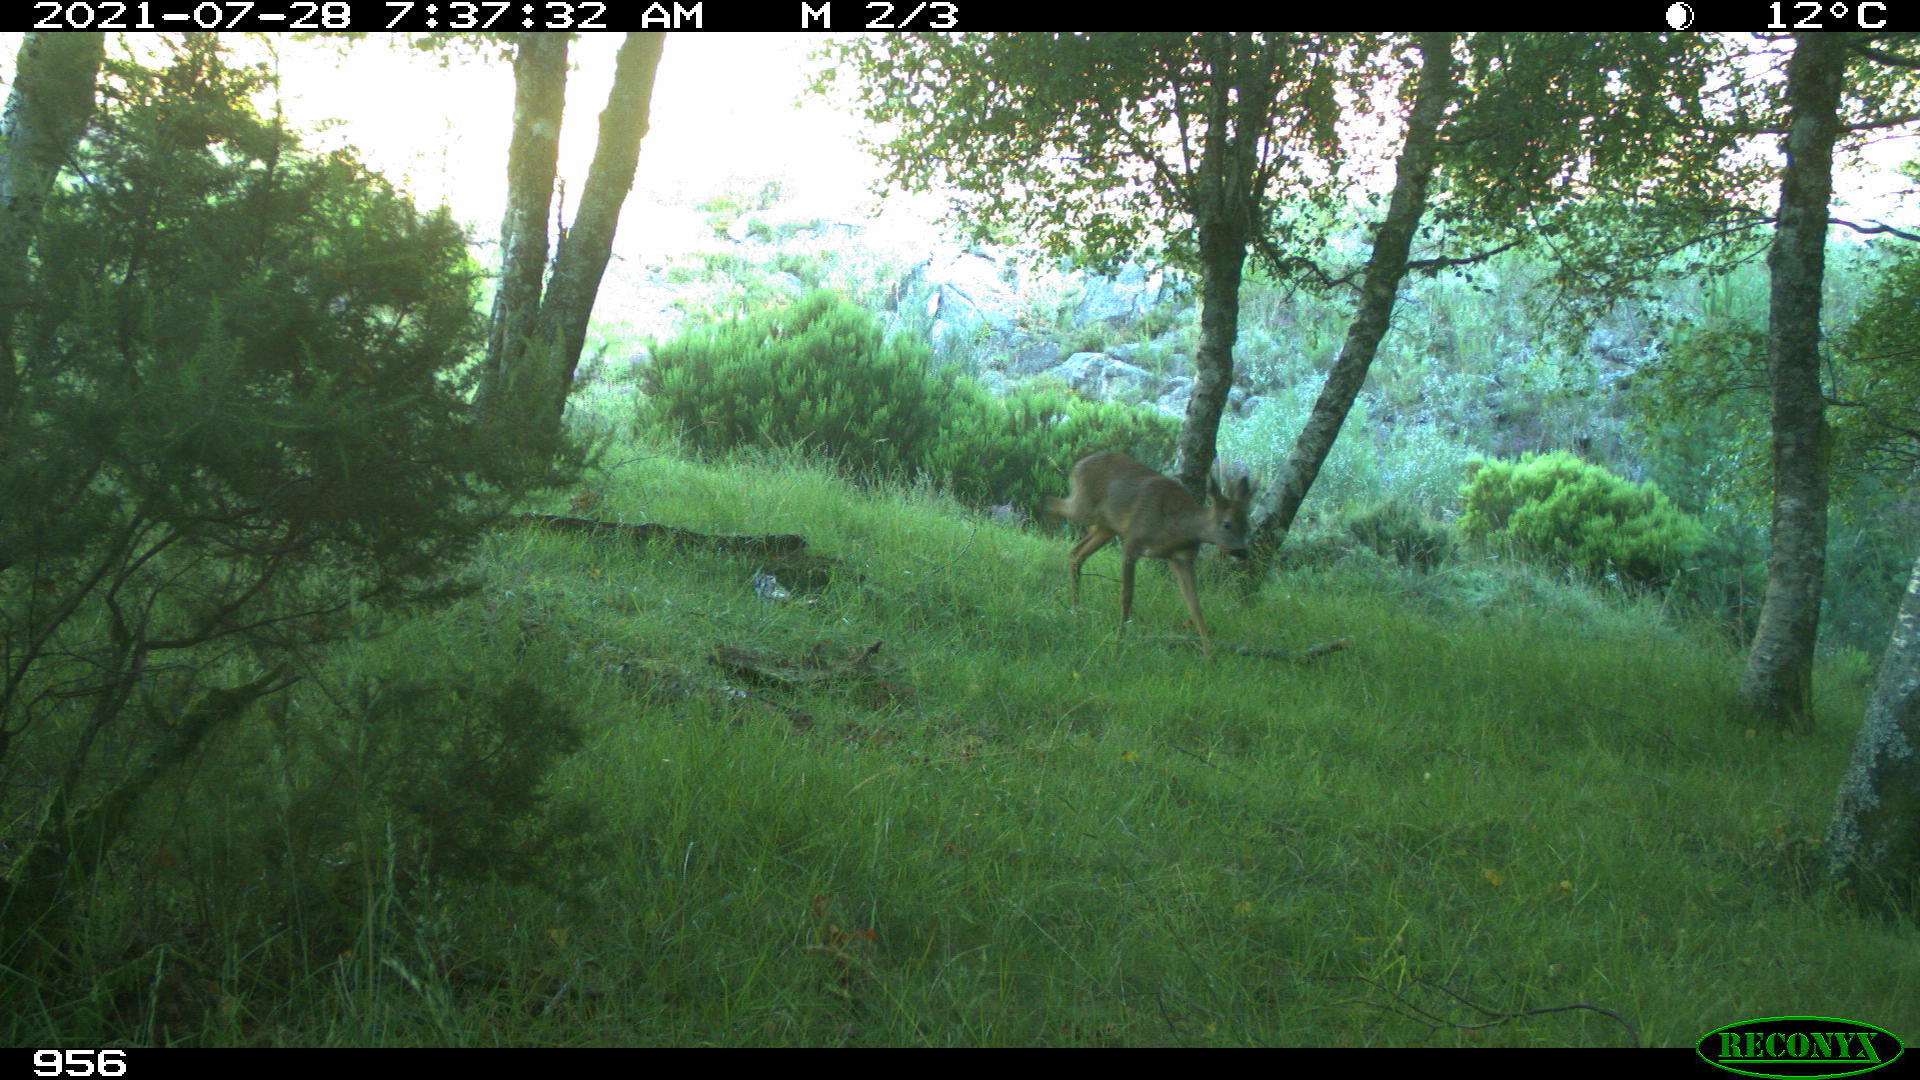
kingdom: Animalia
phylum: Chordata
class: Mammalia
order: Artiodactyla
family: Cervidae
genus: Capreolus
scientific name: Capreolus capreolus
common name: Western roe deer
